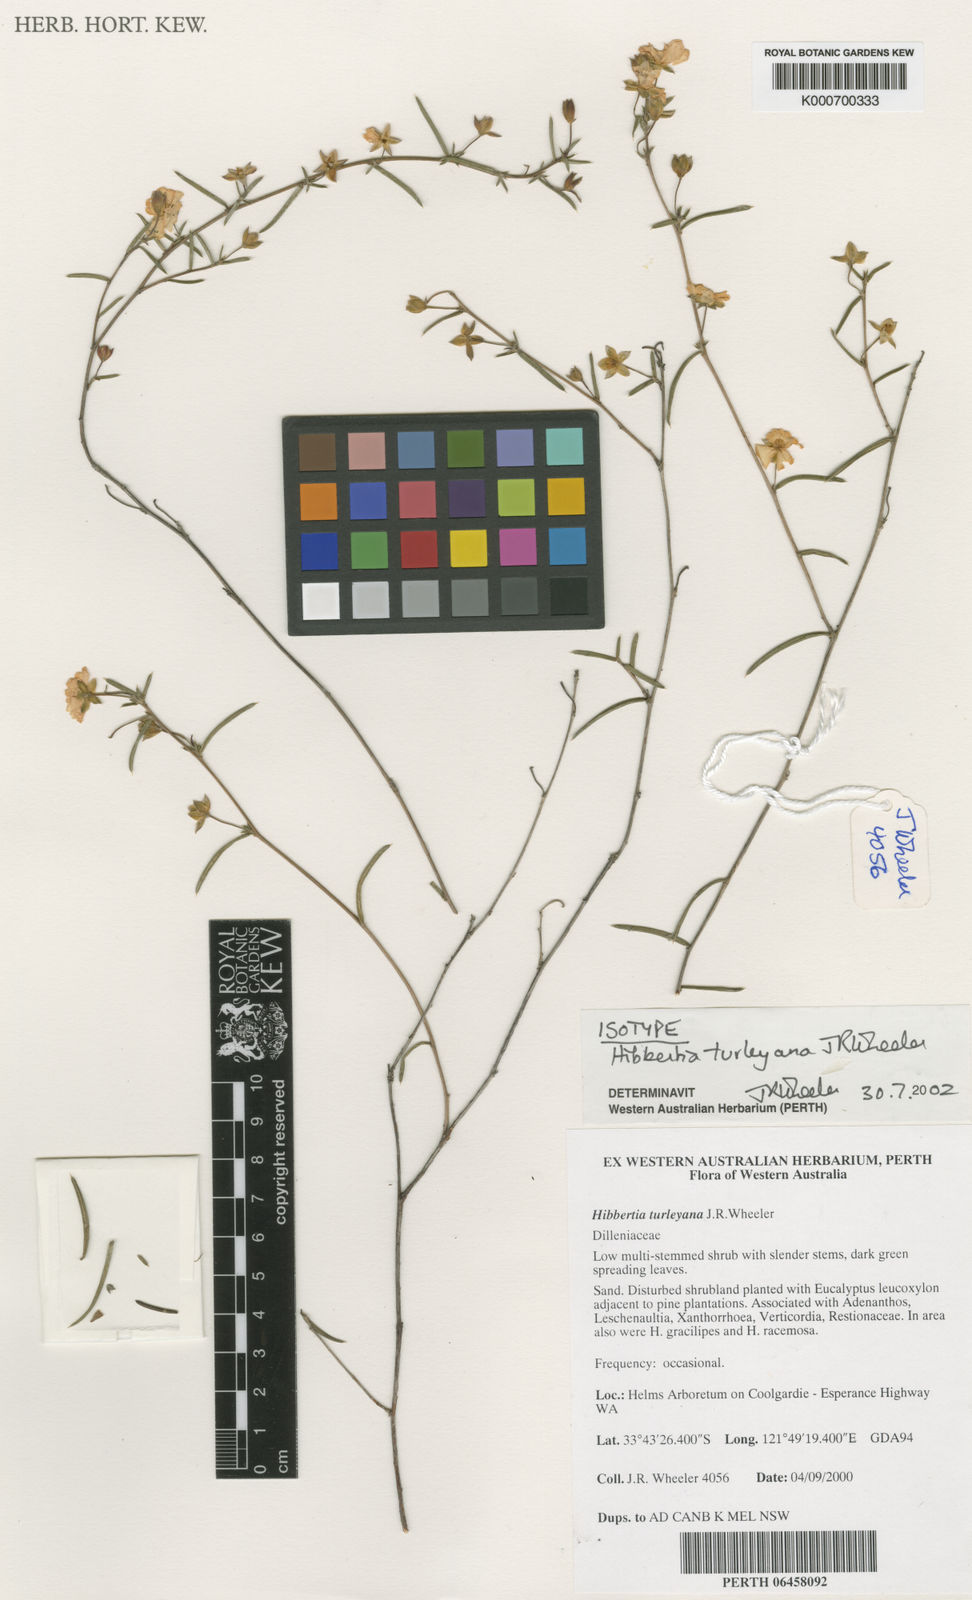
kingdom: Plantae
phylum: Tracheophyta
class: Magnoliopsida
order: Dilleniales
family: Dilleniaceae
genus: Hibbertia
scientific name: Hibbertia turleyana
